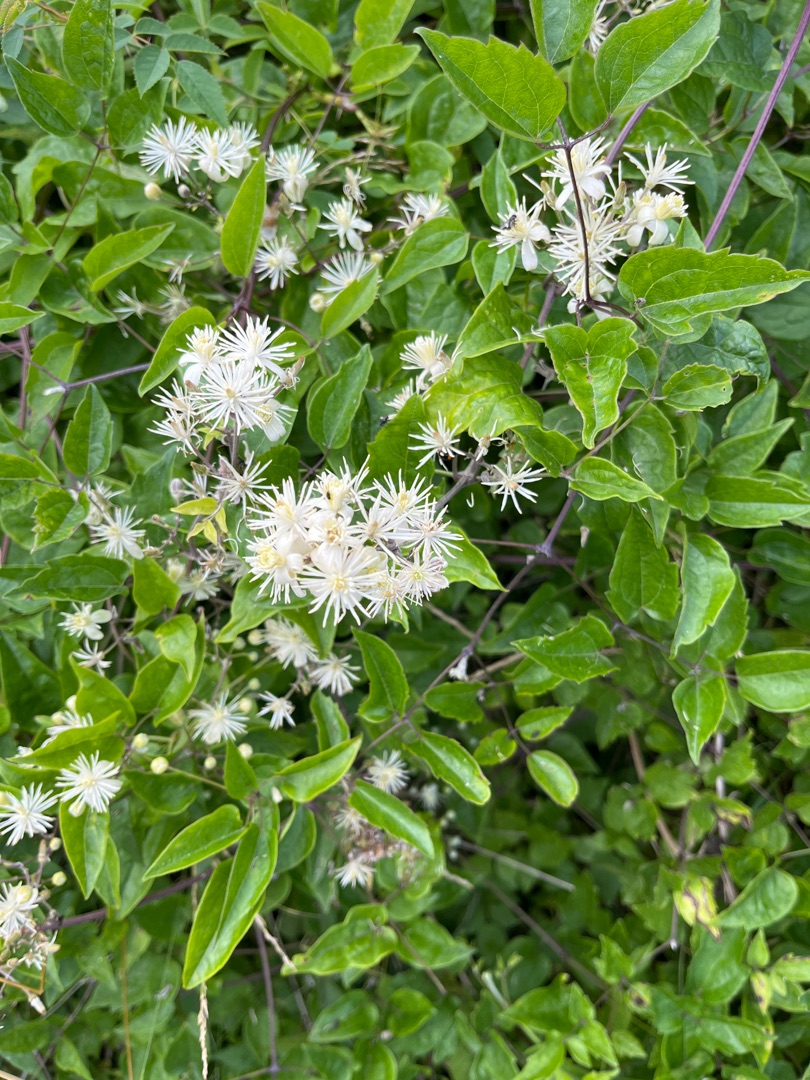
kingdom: Plantae
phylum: Tracheophyta
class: Magnoliopsida
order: Ranunculales
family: Ranunculaceae
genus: Clematis
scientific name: Clematis vitalba
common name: Skovranke
